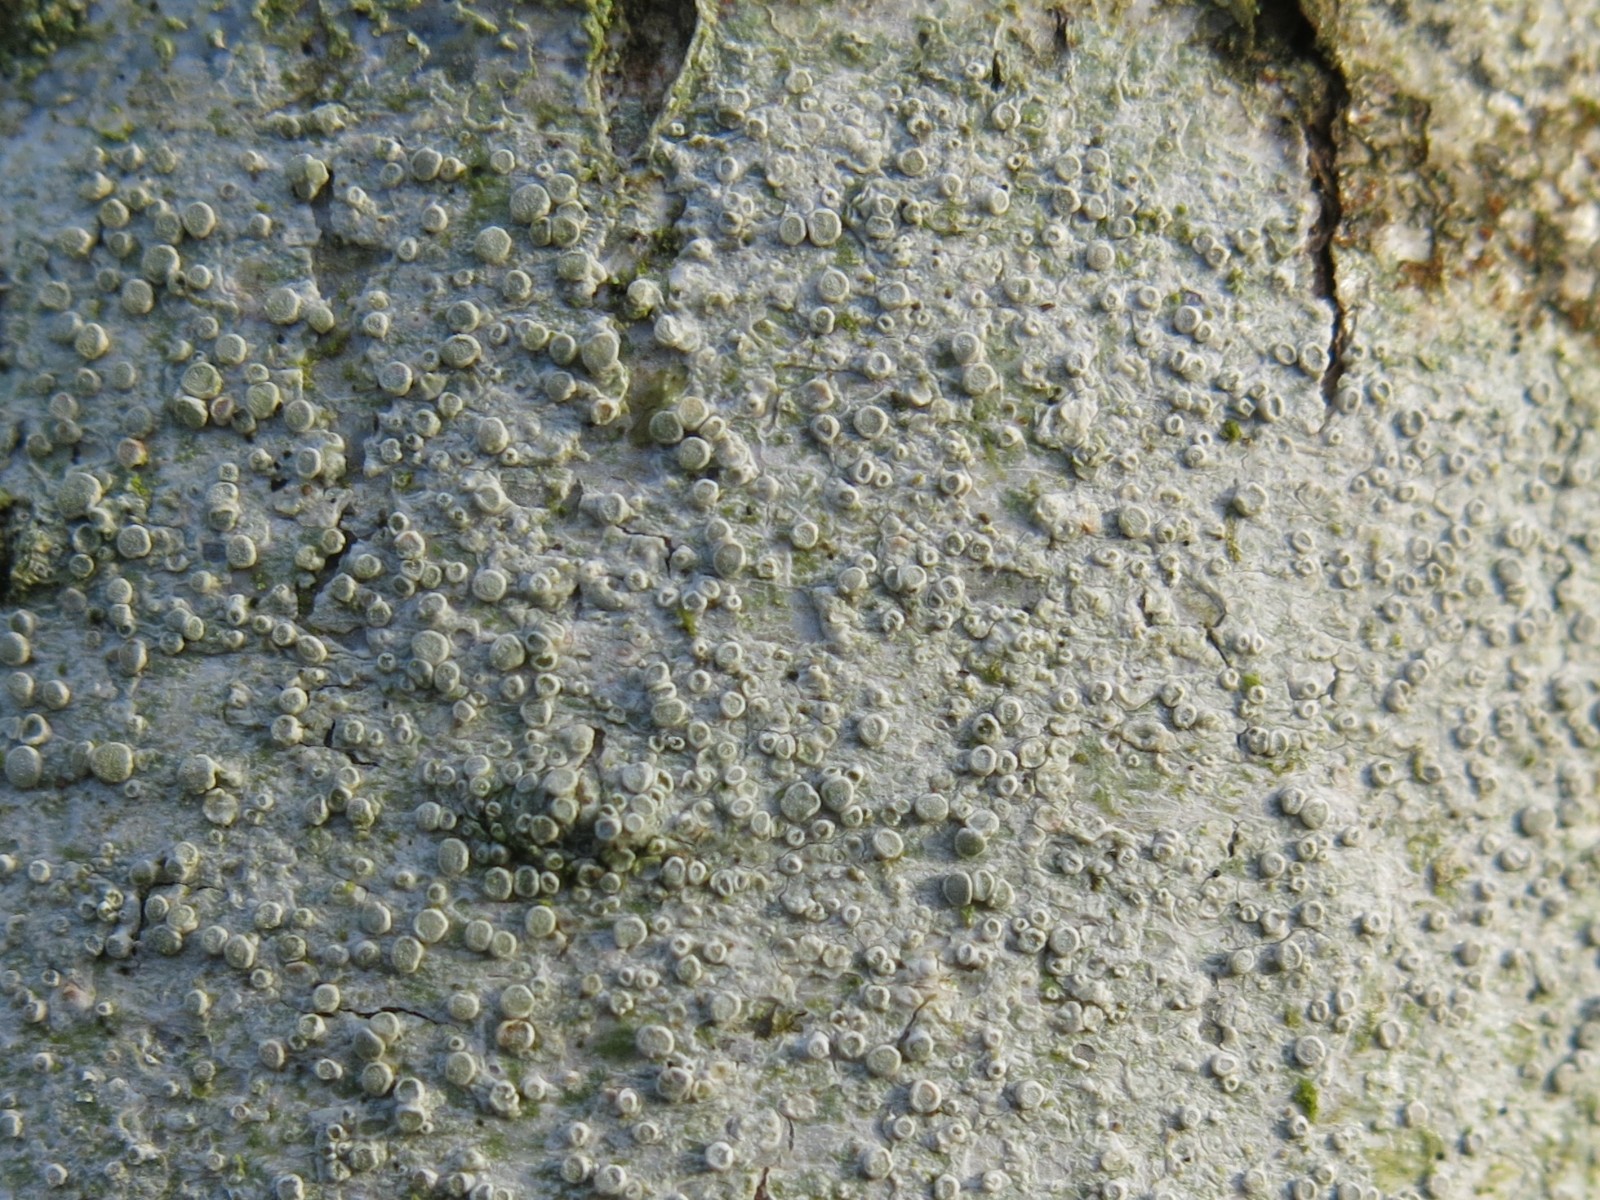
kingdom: Fungi
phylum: Ascomycota
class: Lecanoromycetes
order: Lecanorales
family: Lecanoraceae
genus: Glaucomaria
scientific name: Glaucomaria carpinea
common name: hviddugget kantskivelav
